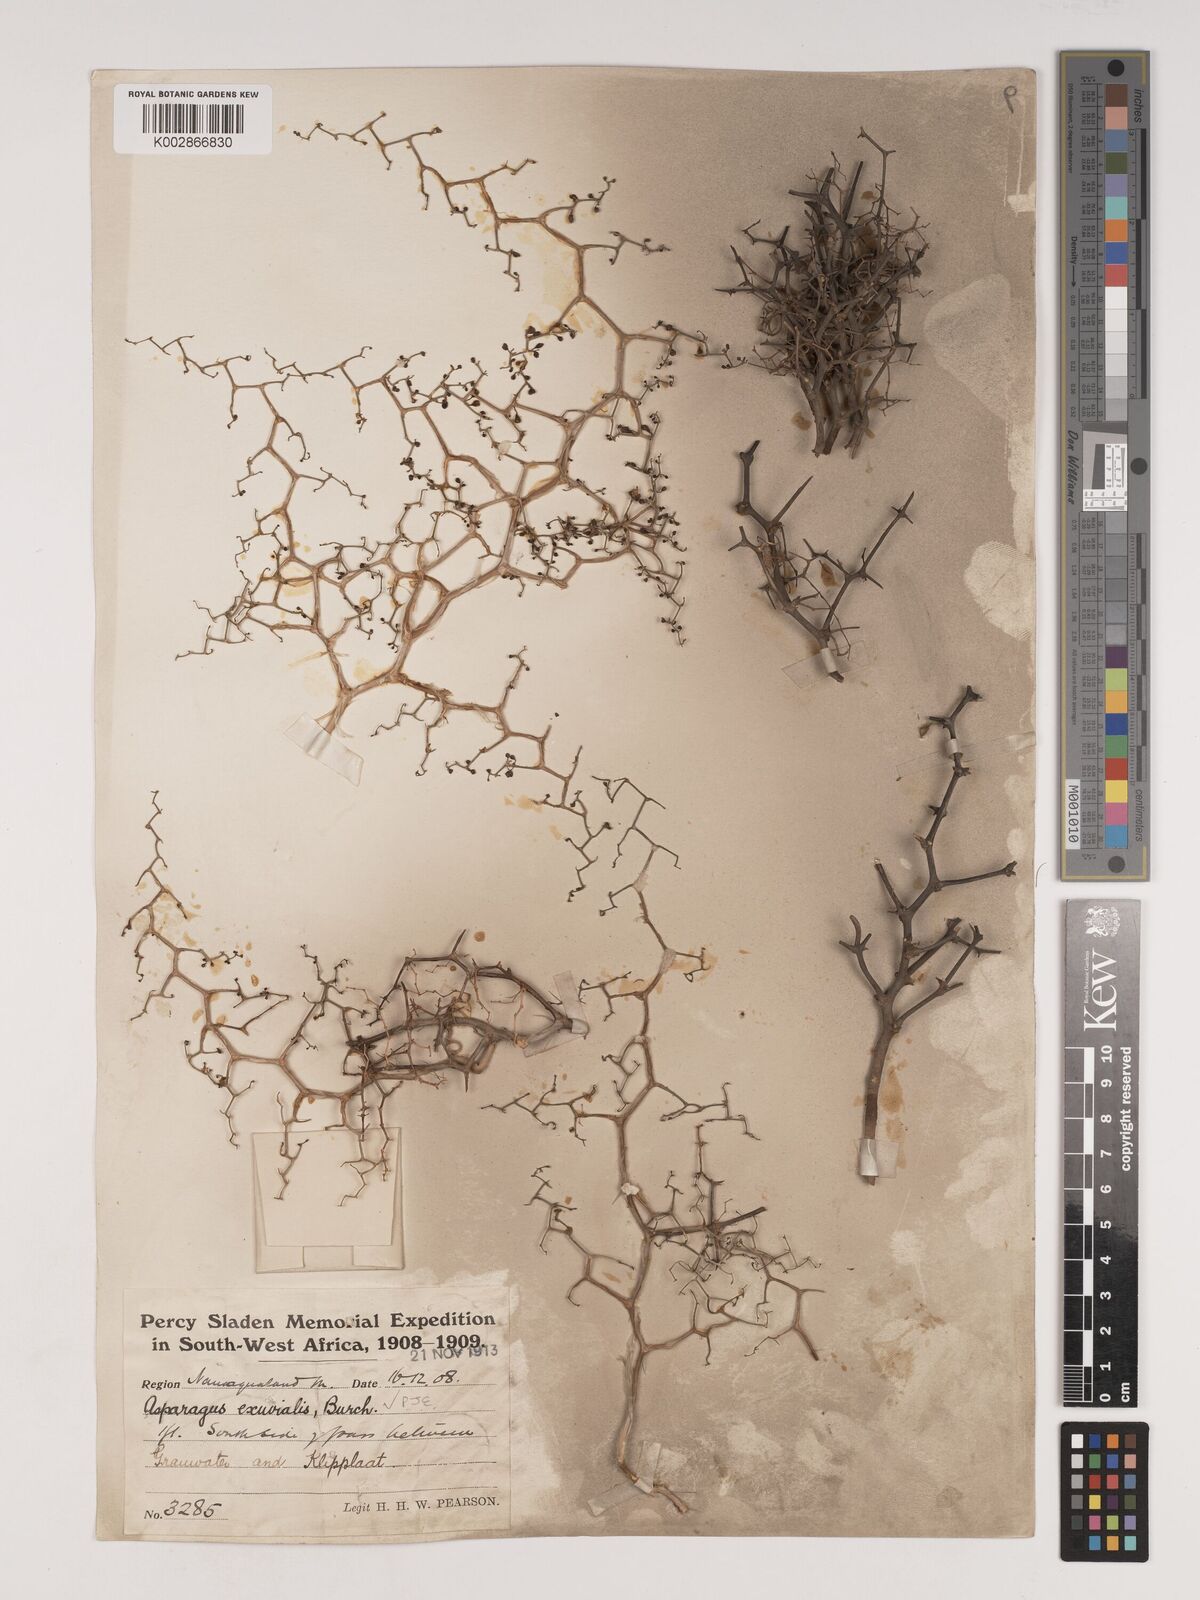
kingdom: Plantae
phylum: Tracheophyta
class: Liliopsida
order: Asparagales
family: Asparagaceae
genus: Asparagus
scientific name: Asparagus exuvialis
